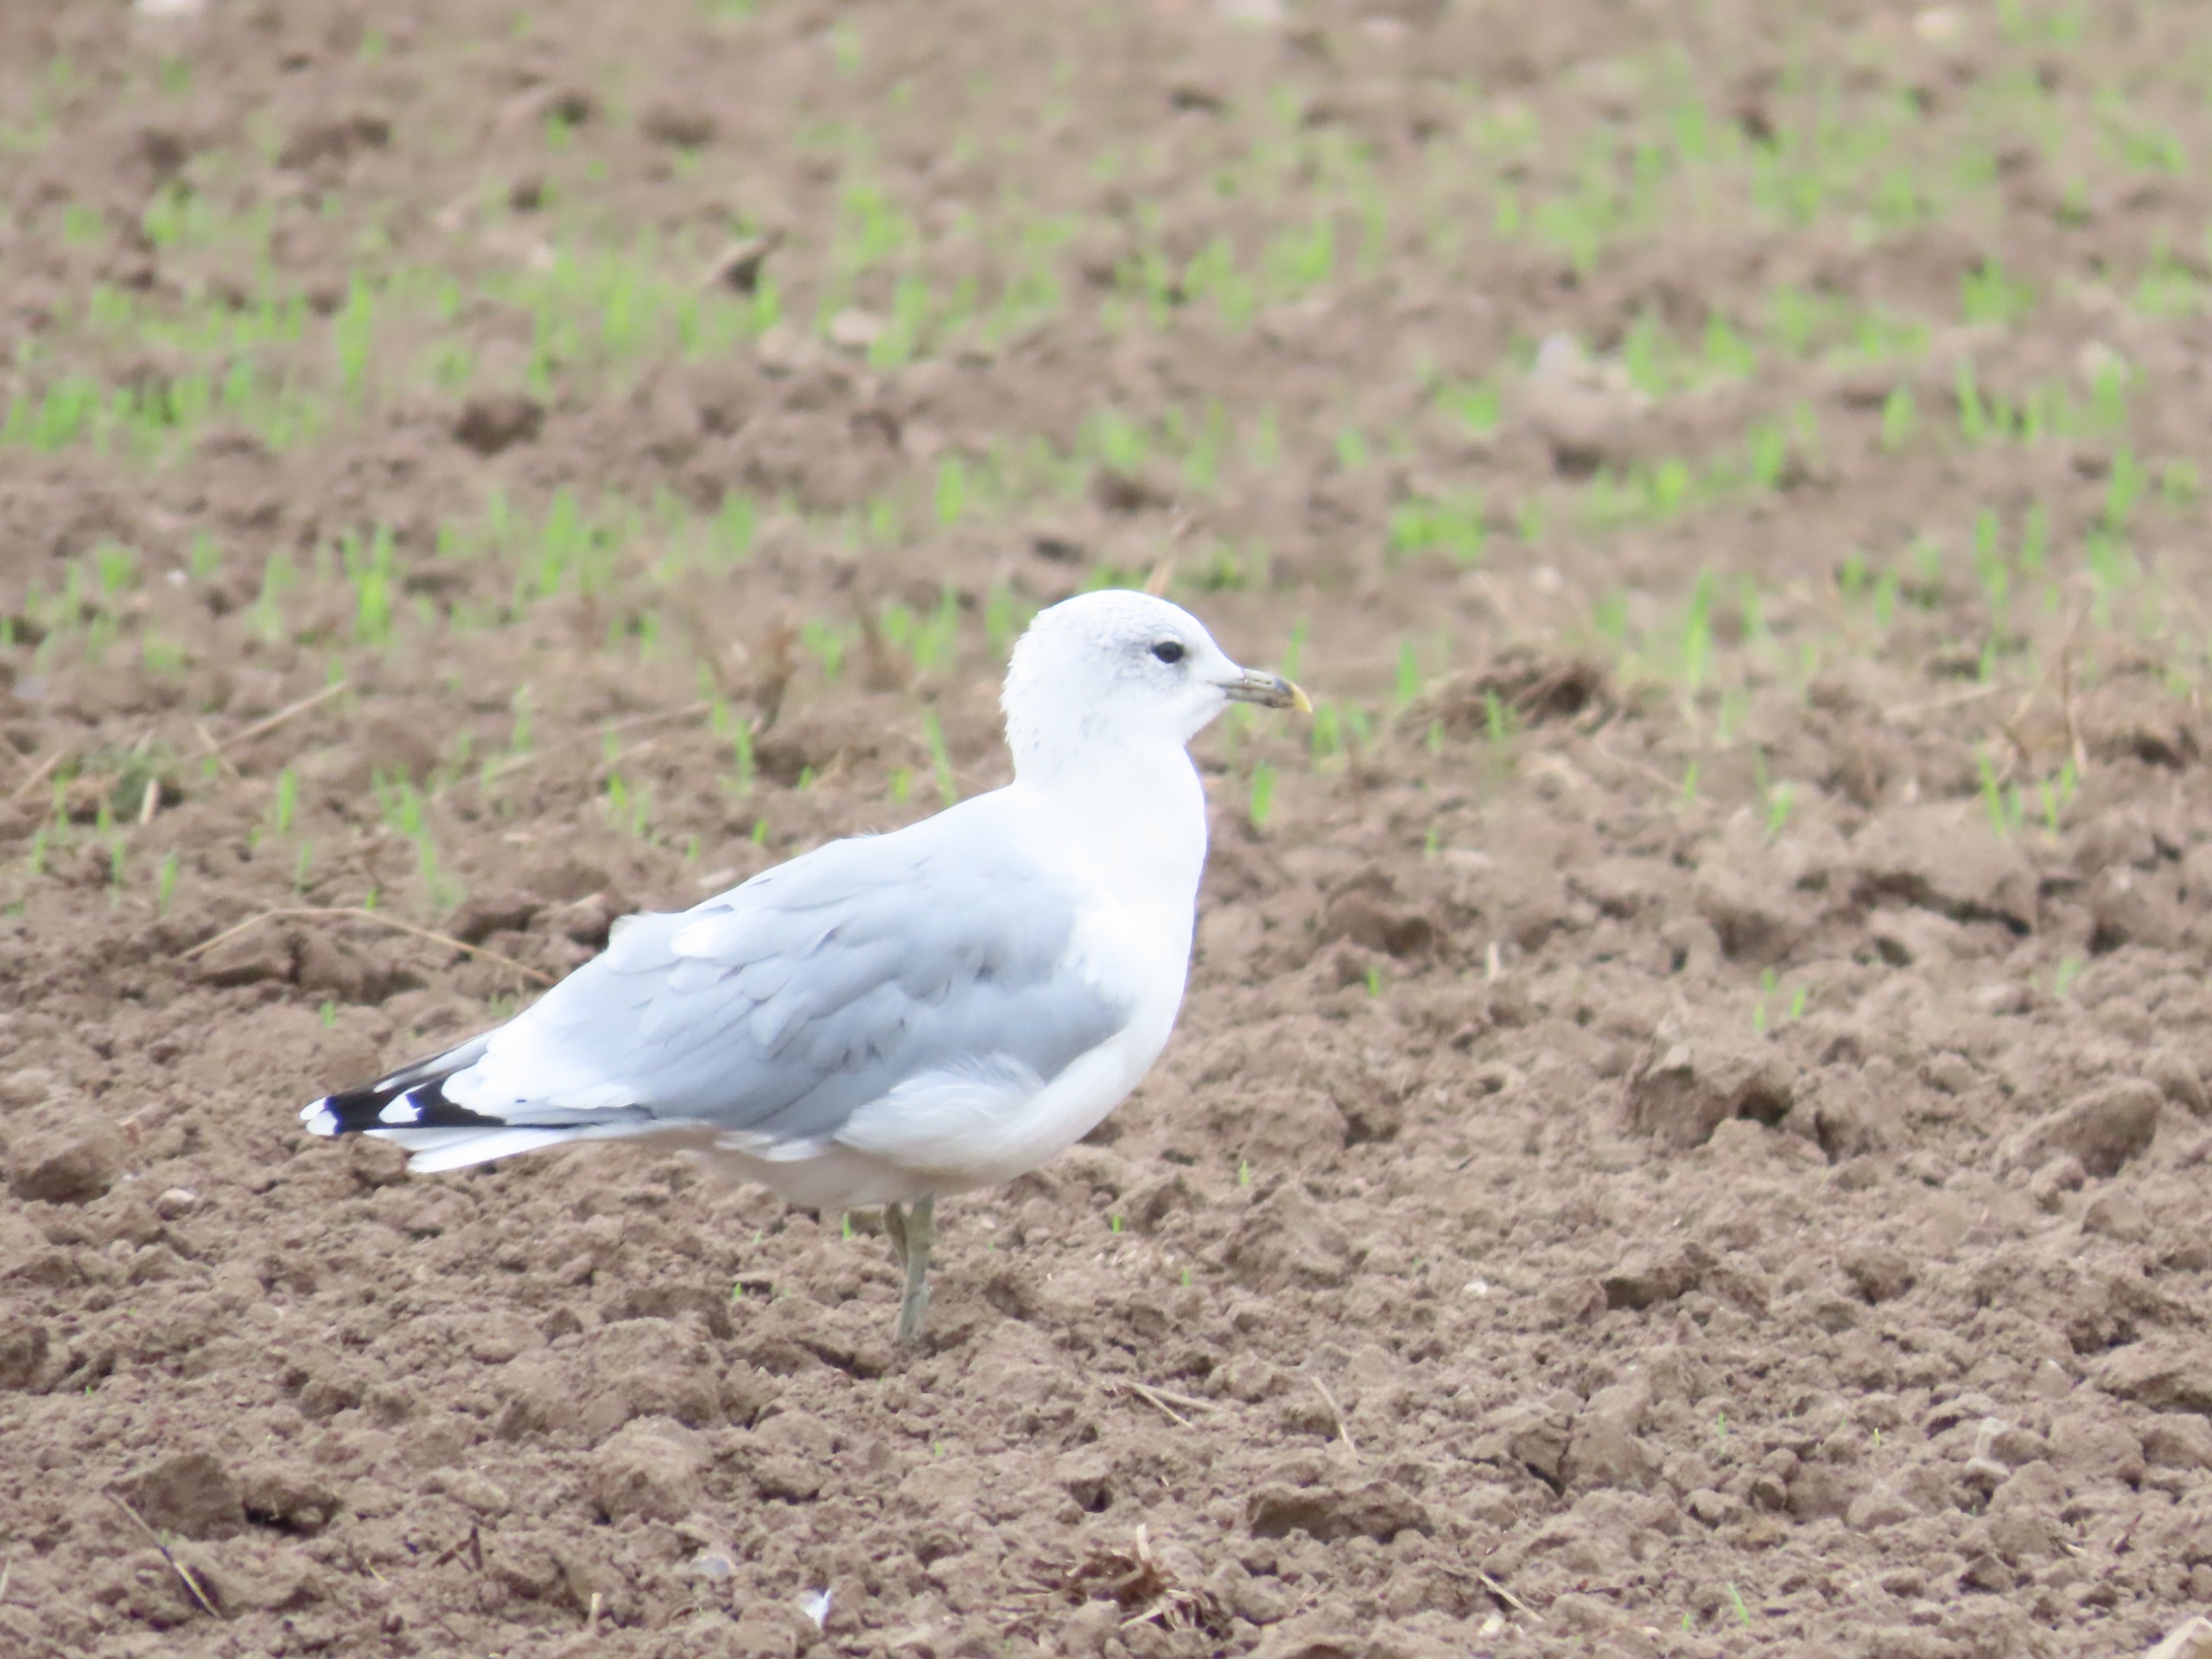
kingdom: Animalia
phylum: Chordata
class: Aves
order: Charadriiformes
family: Laridae
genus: Larus
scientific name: Larus canus
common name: Stormmåge
